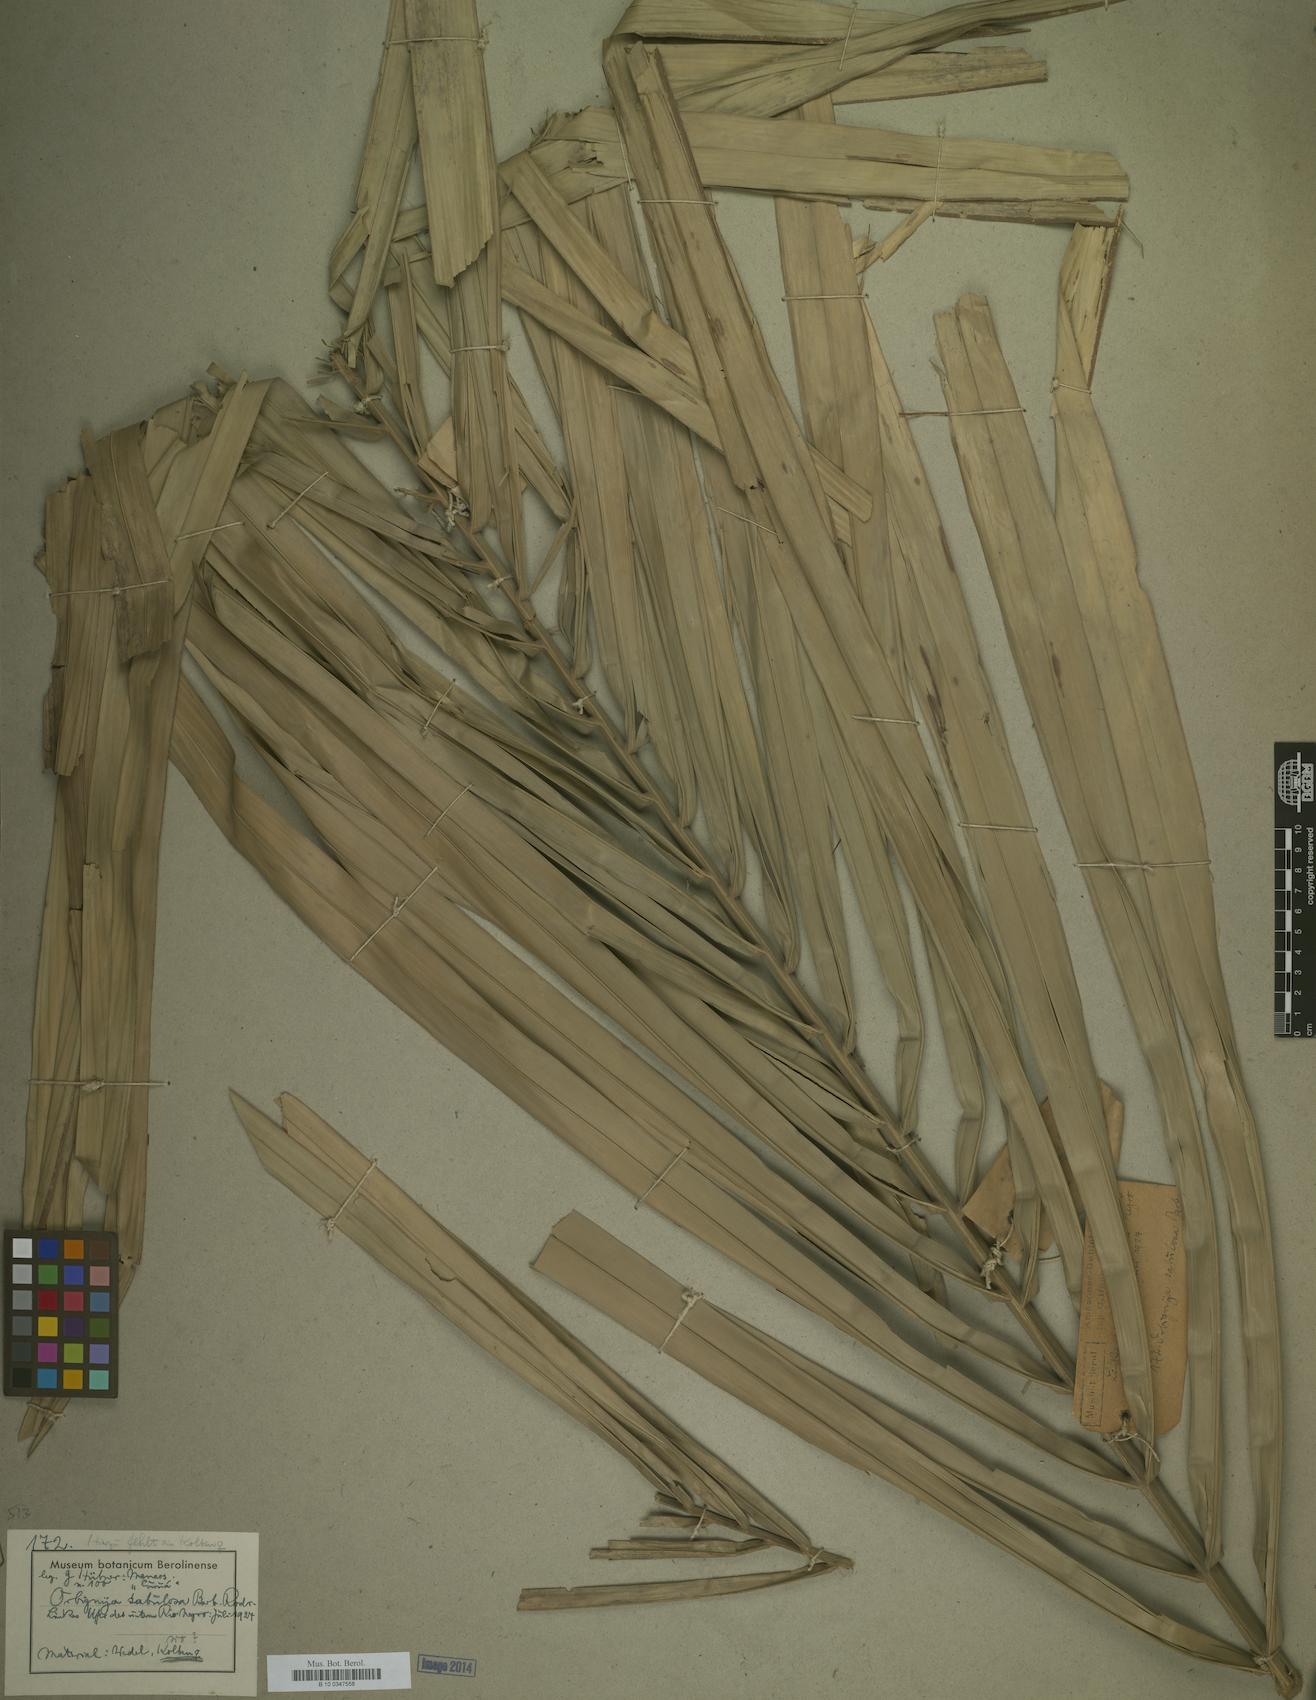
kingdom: Plantae
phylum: Tracheophyta
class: Liliopsida
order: Arecales
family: Arecaceae
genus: Attalea
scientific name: Attalea microcarpa
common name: Mountain maripa
